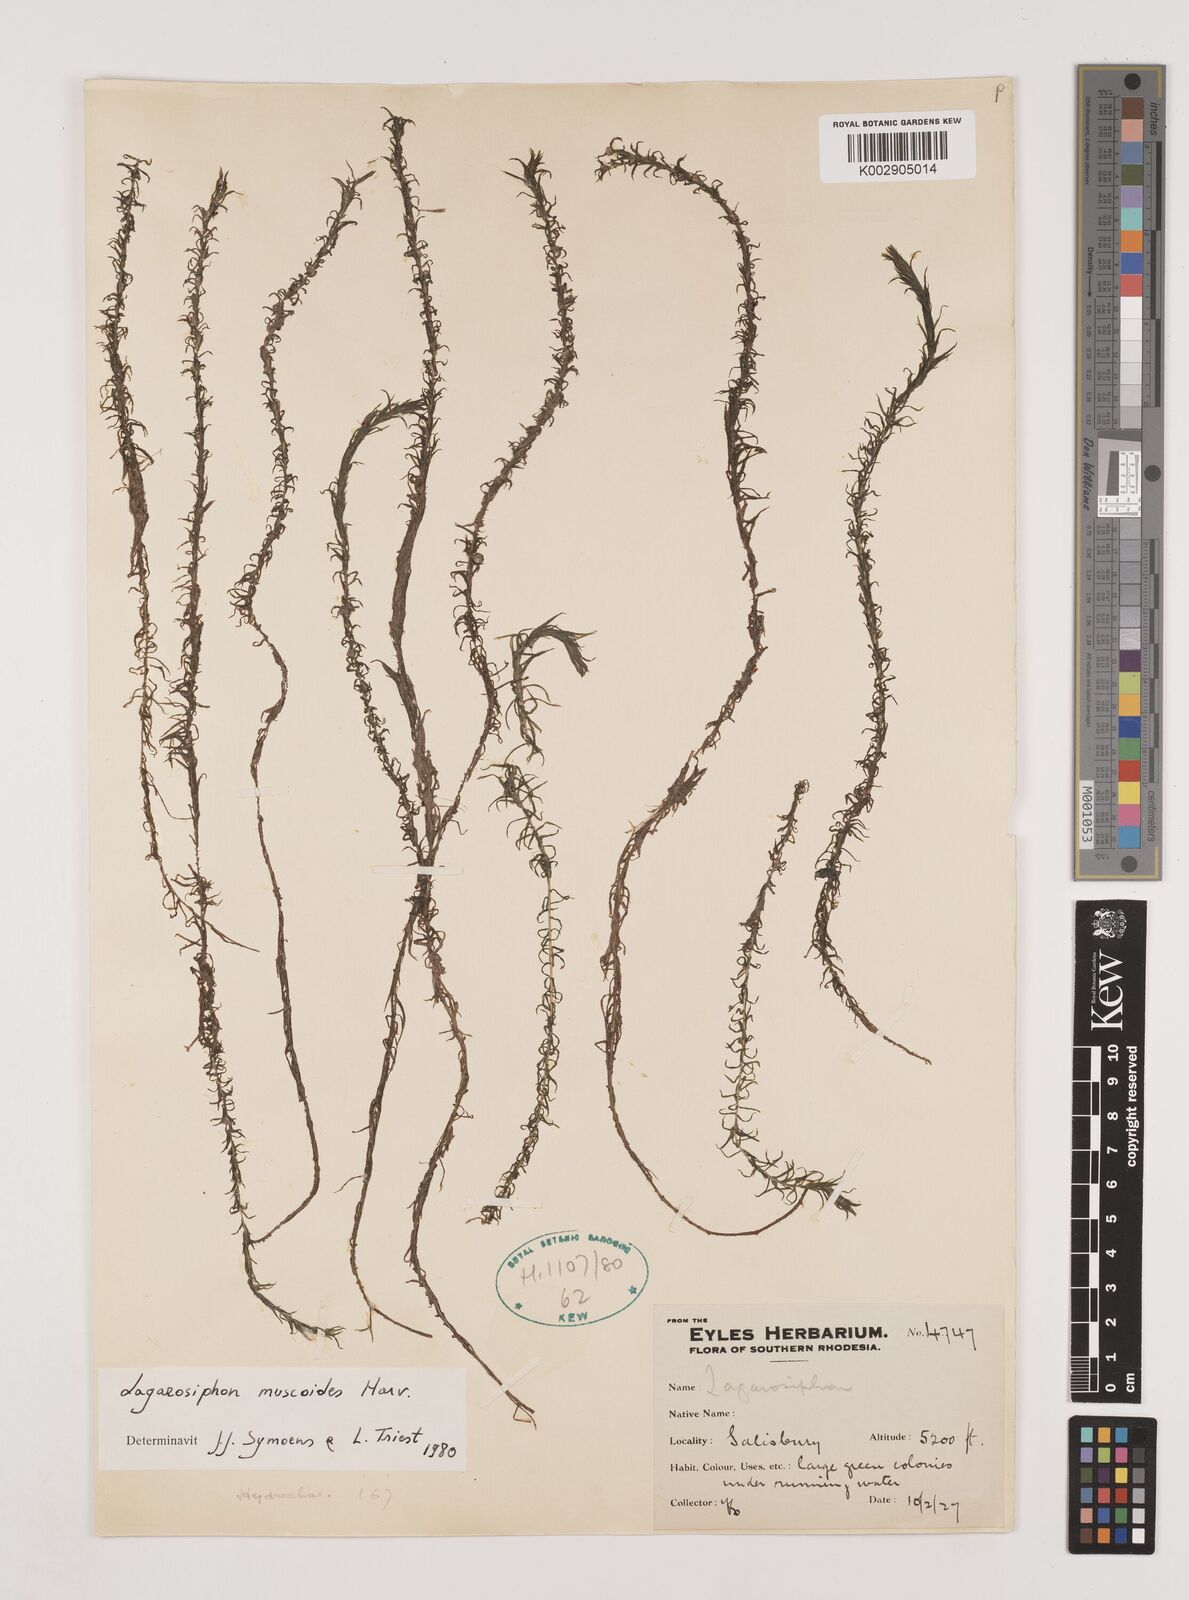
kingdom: Plantae
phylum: Tracheophyta
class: Liliopsida
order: Alismatales
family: Hydrocharitaceae
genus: Lagarosiphon
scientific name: Lagarosiphon muscoides
